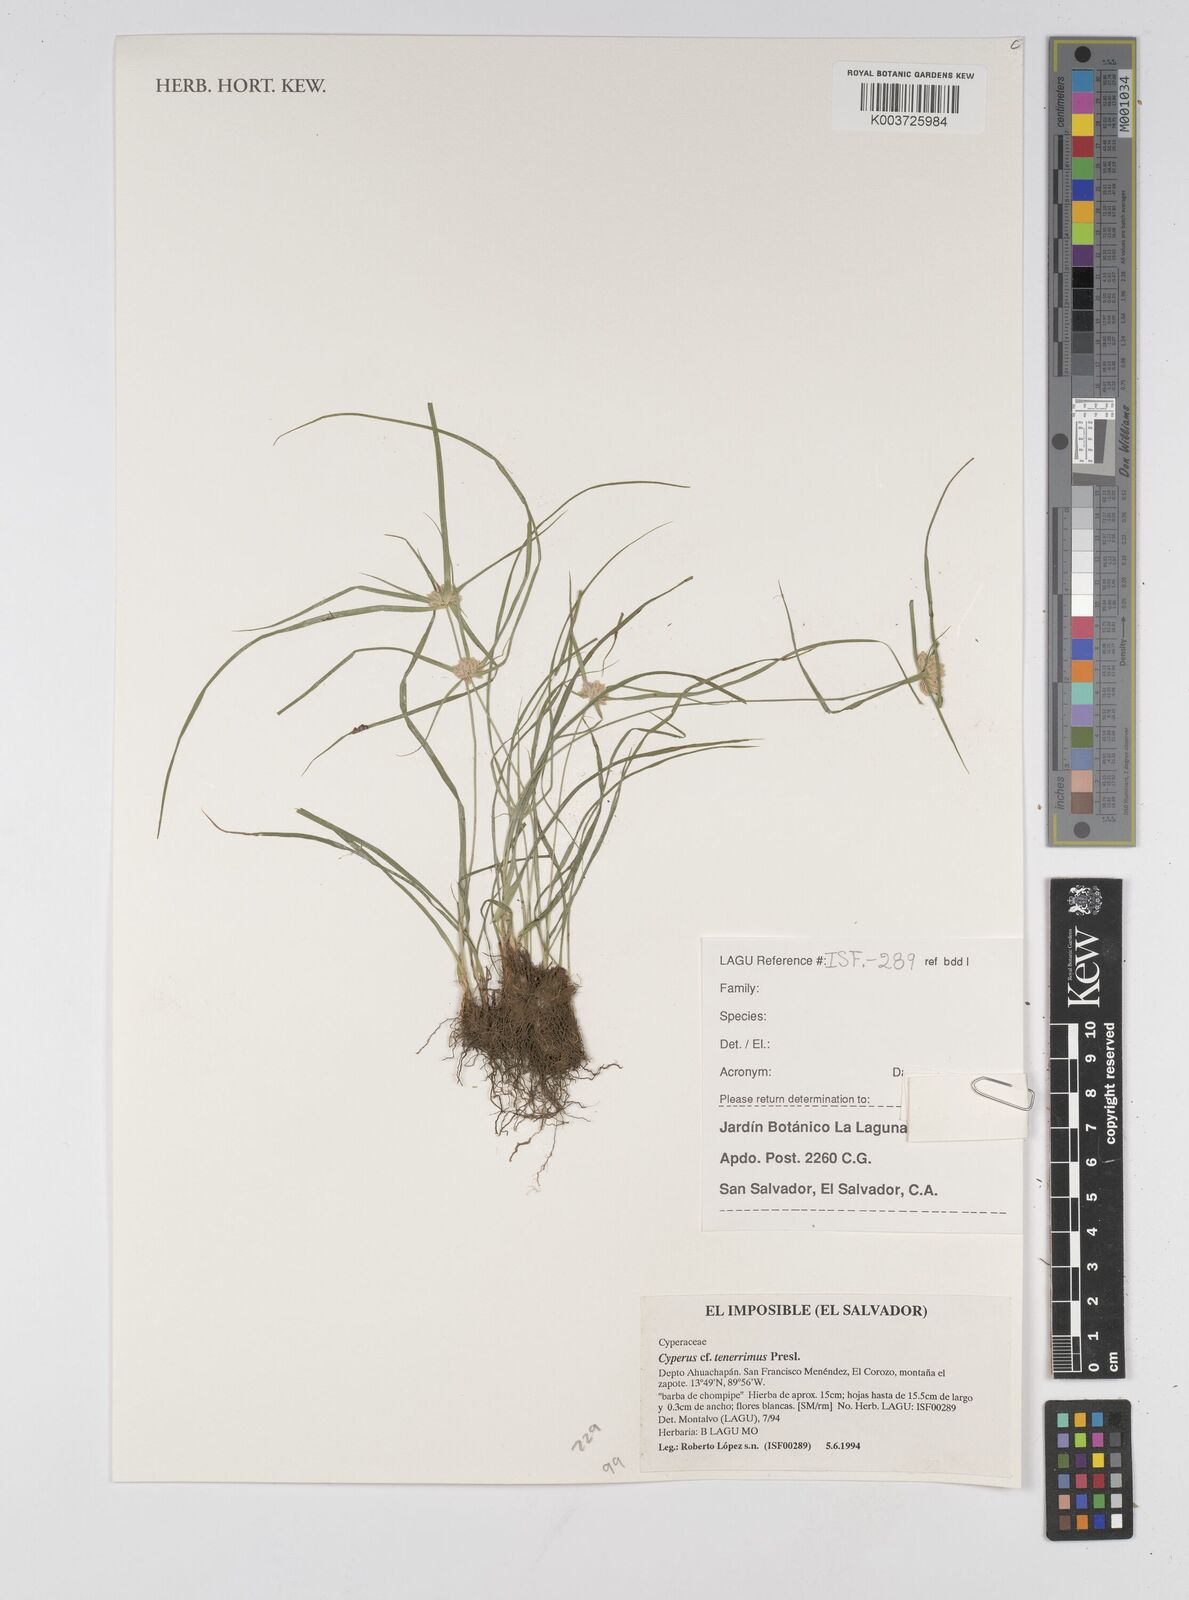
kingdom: Plantae
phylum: Tracheophyta
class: Liliopsida
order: Poales
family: Cyperaceae
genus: Cyperus
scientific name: Cyperus tenerrimus
